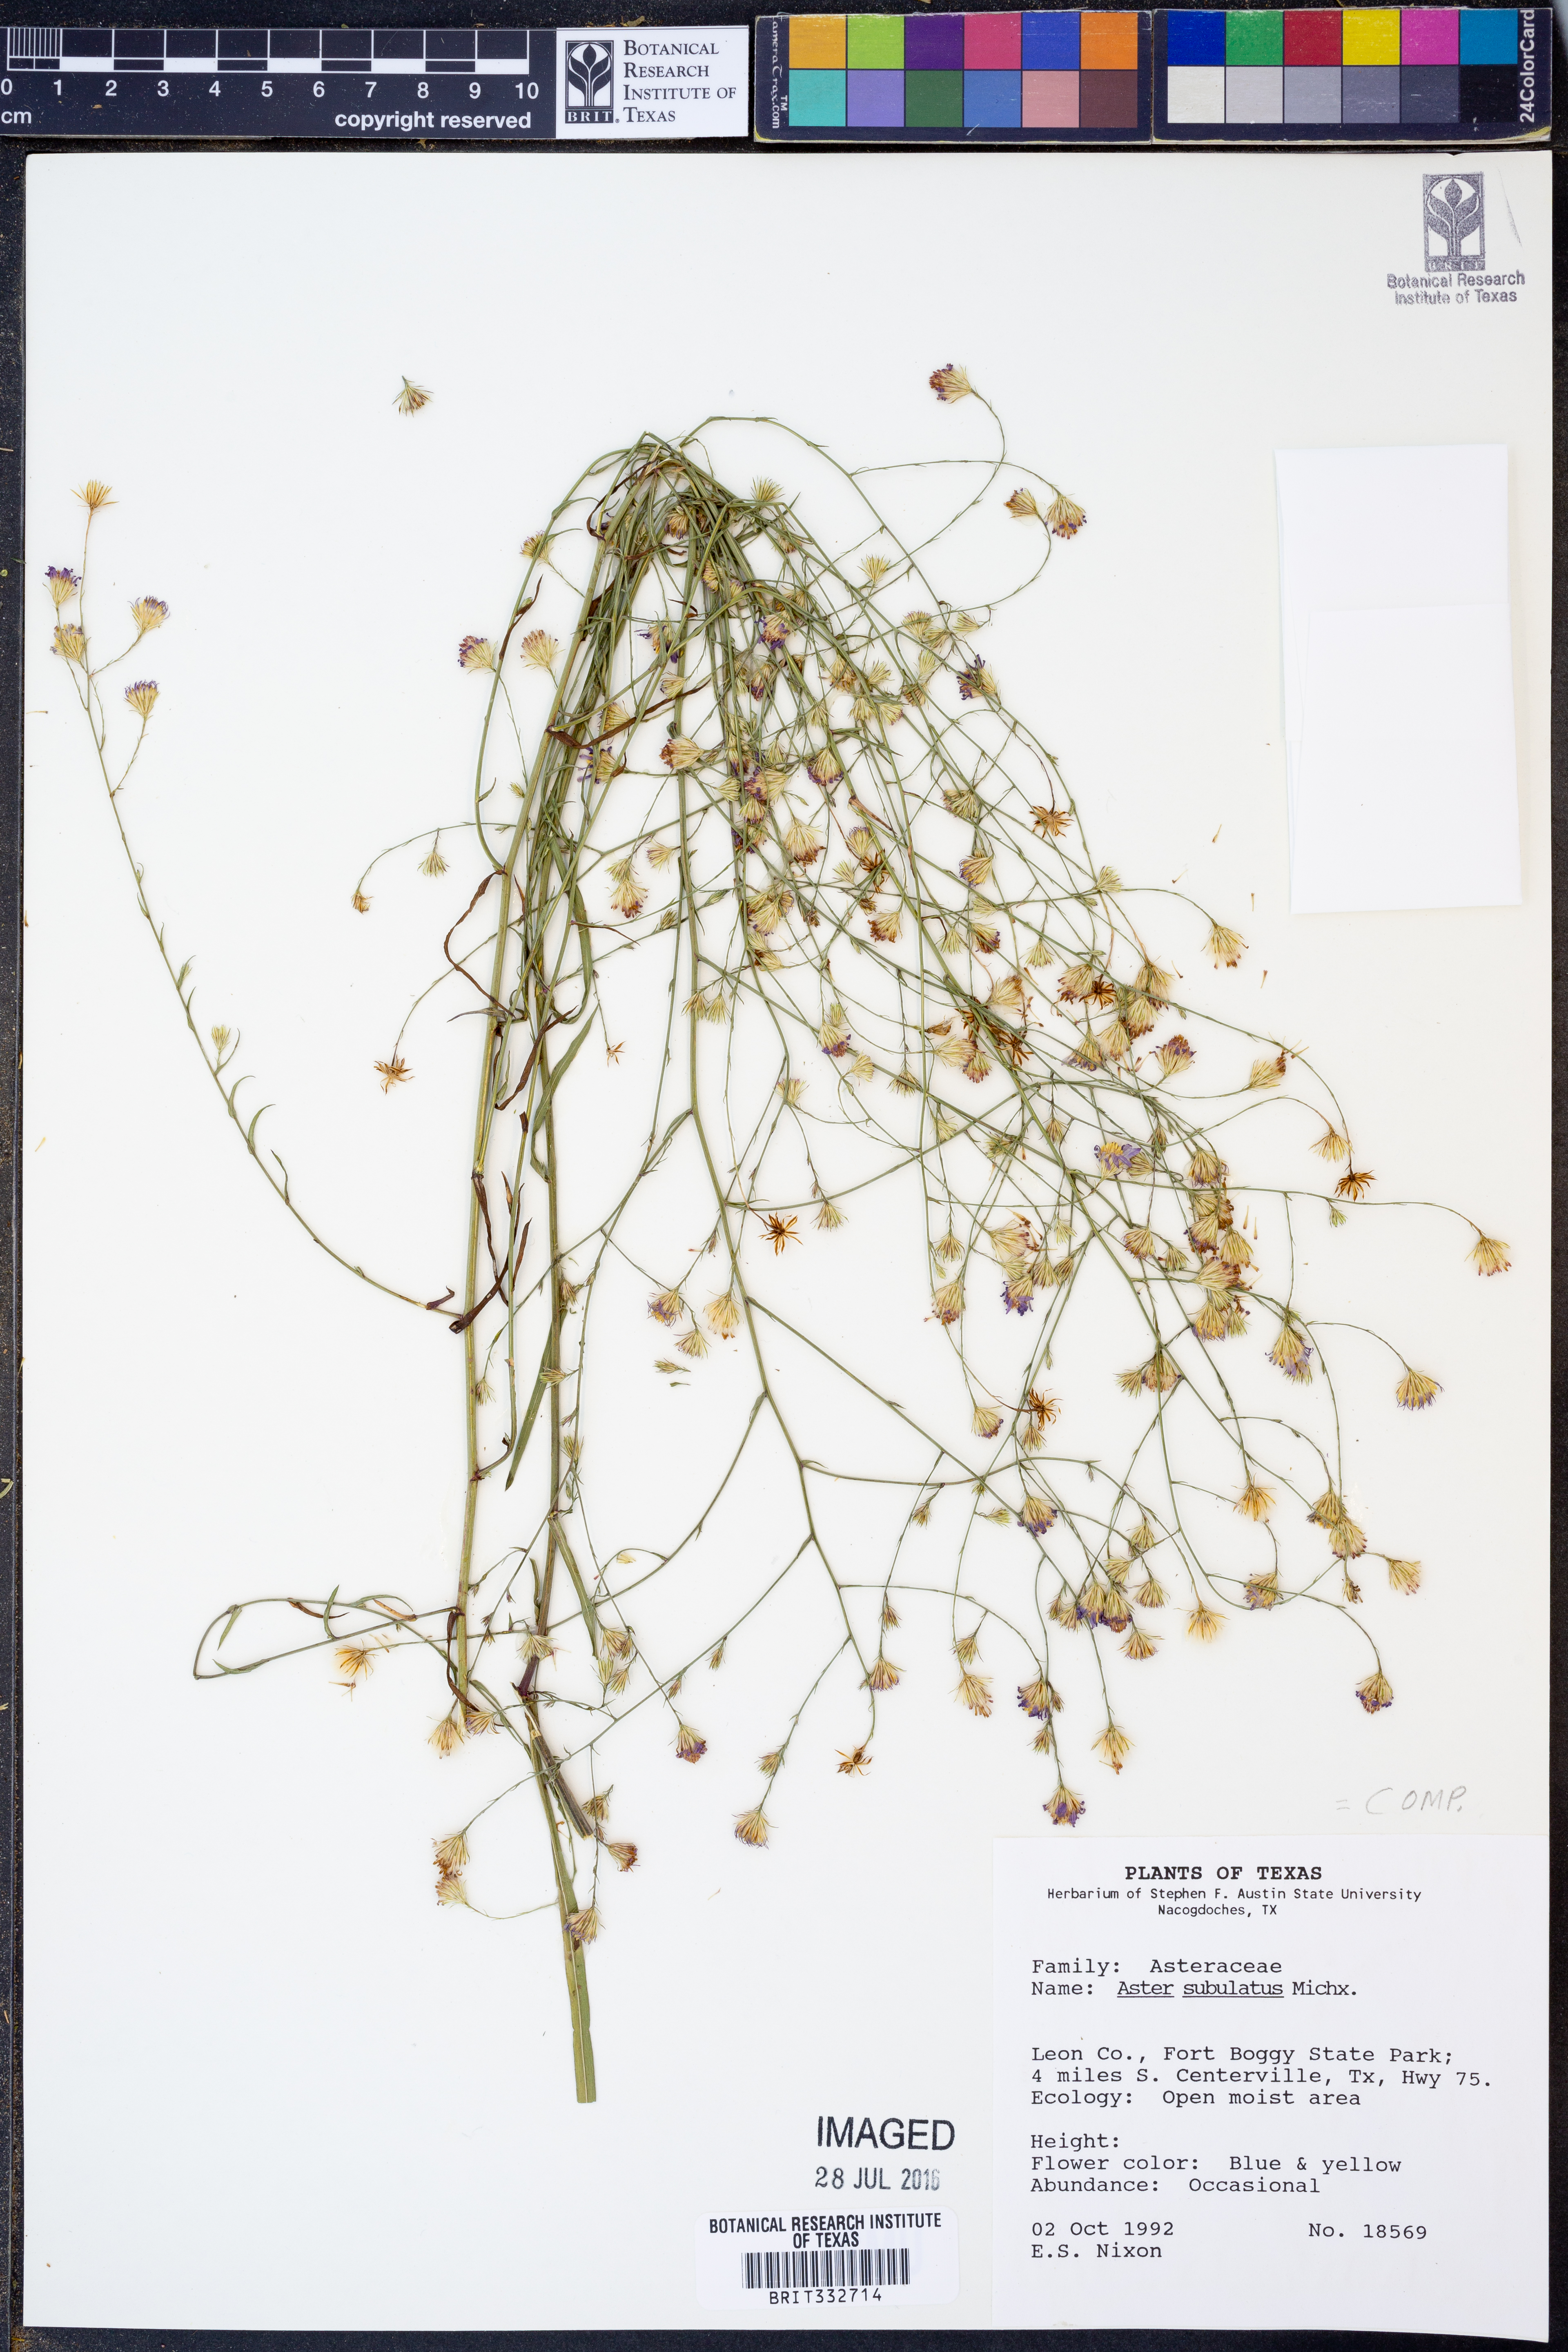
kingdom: Plantae
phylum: Tracheophyta
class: Magnoliopsida
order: Asterales
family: Asteraceae
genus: Symphyotrichum
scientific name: Symphyotrichum subulatum
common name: Annual saltmarsh aster
